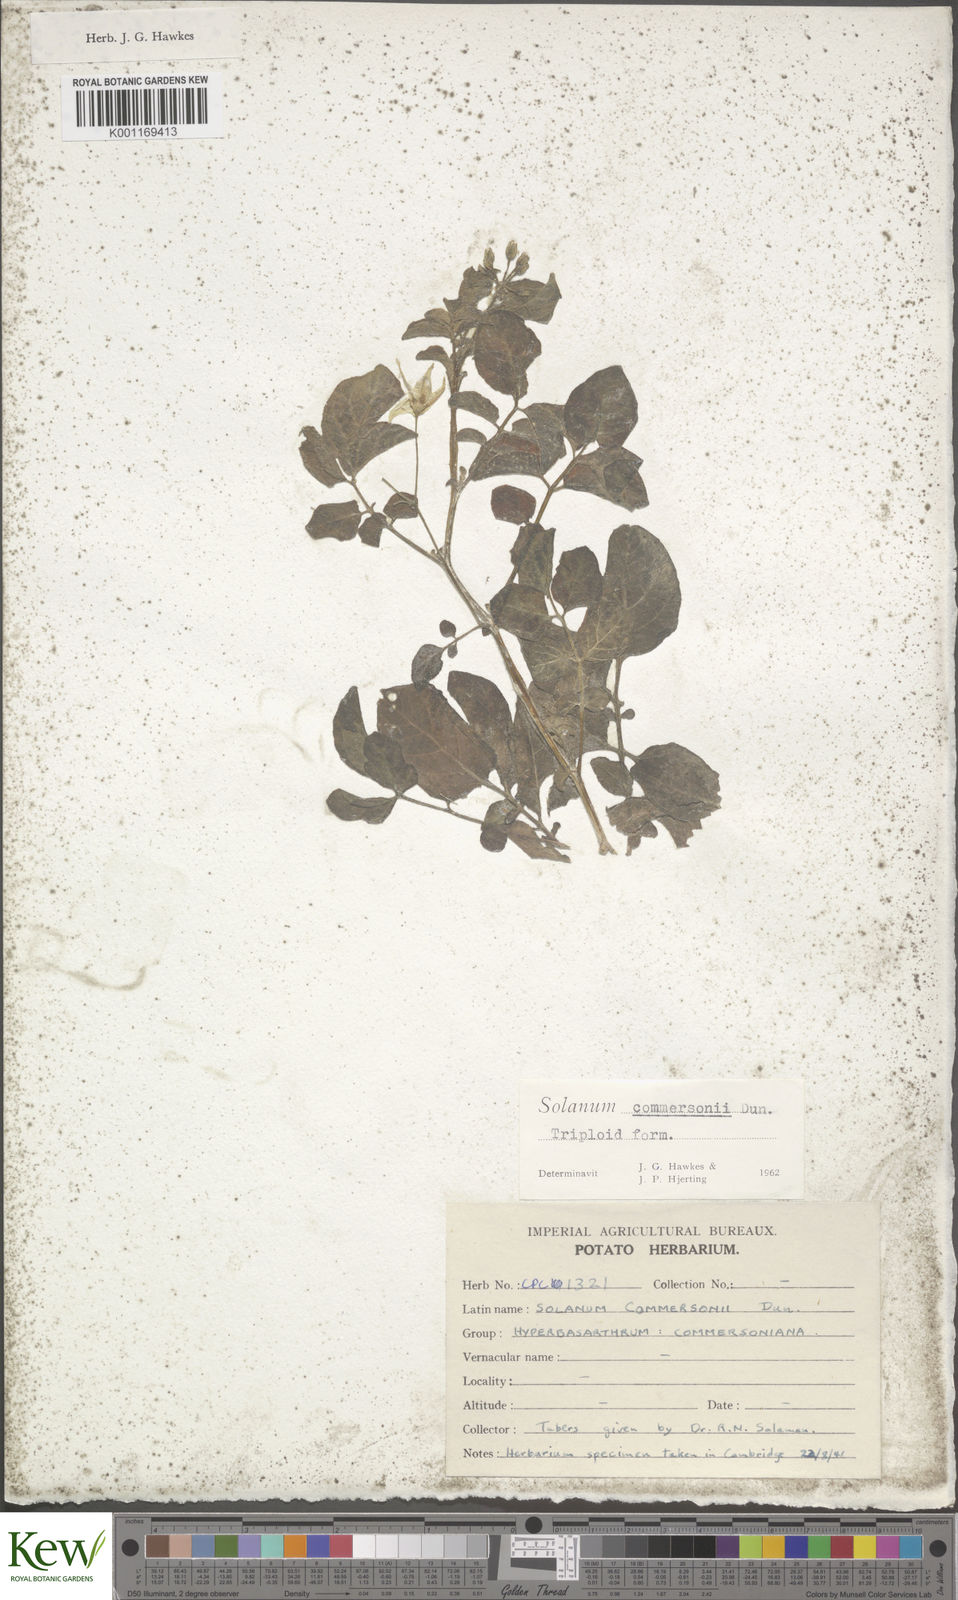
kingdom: Plantae
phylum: Tracheophyta
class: Magnoliopsida
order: Solanales
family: Solanaceae
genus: Solanum
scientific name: Solanum commersonii
